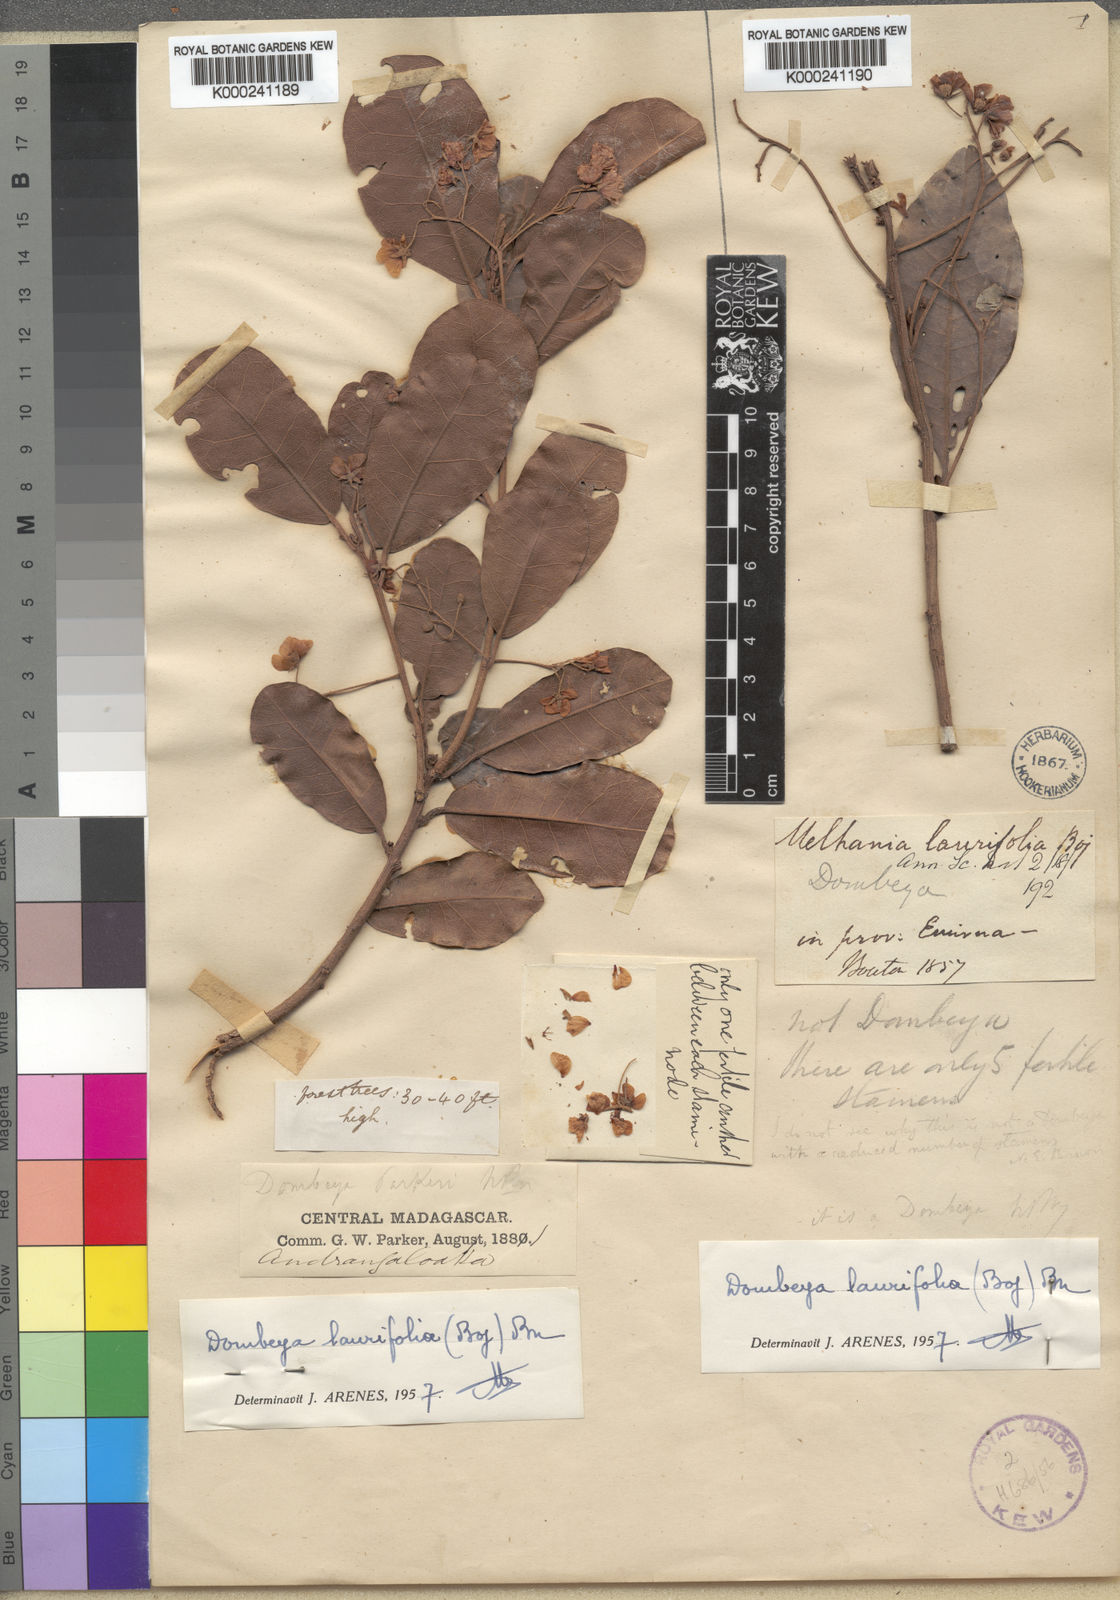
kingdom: Plantae
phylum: Tracheophyta
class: Magnoliopsida
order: Malvales
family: Malvaceae
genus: Dombeya
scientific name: Dombeya laurifolia
